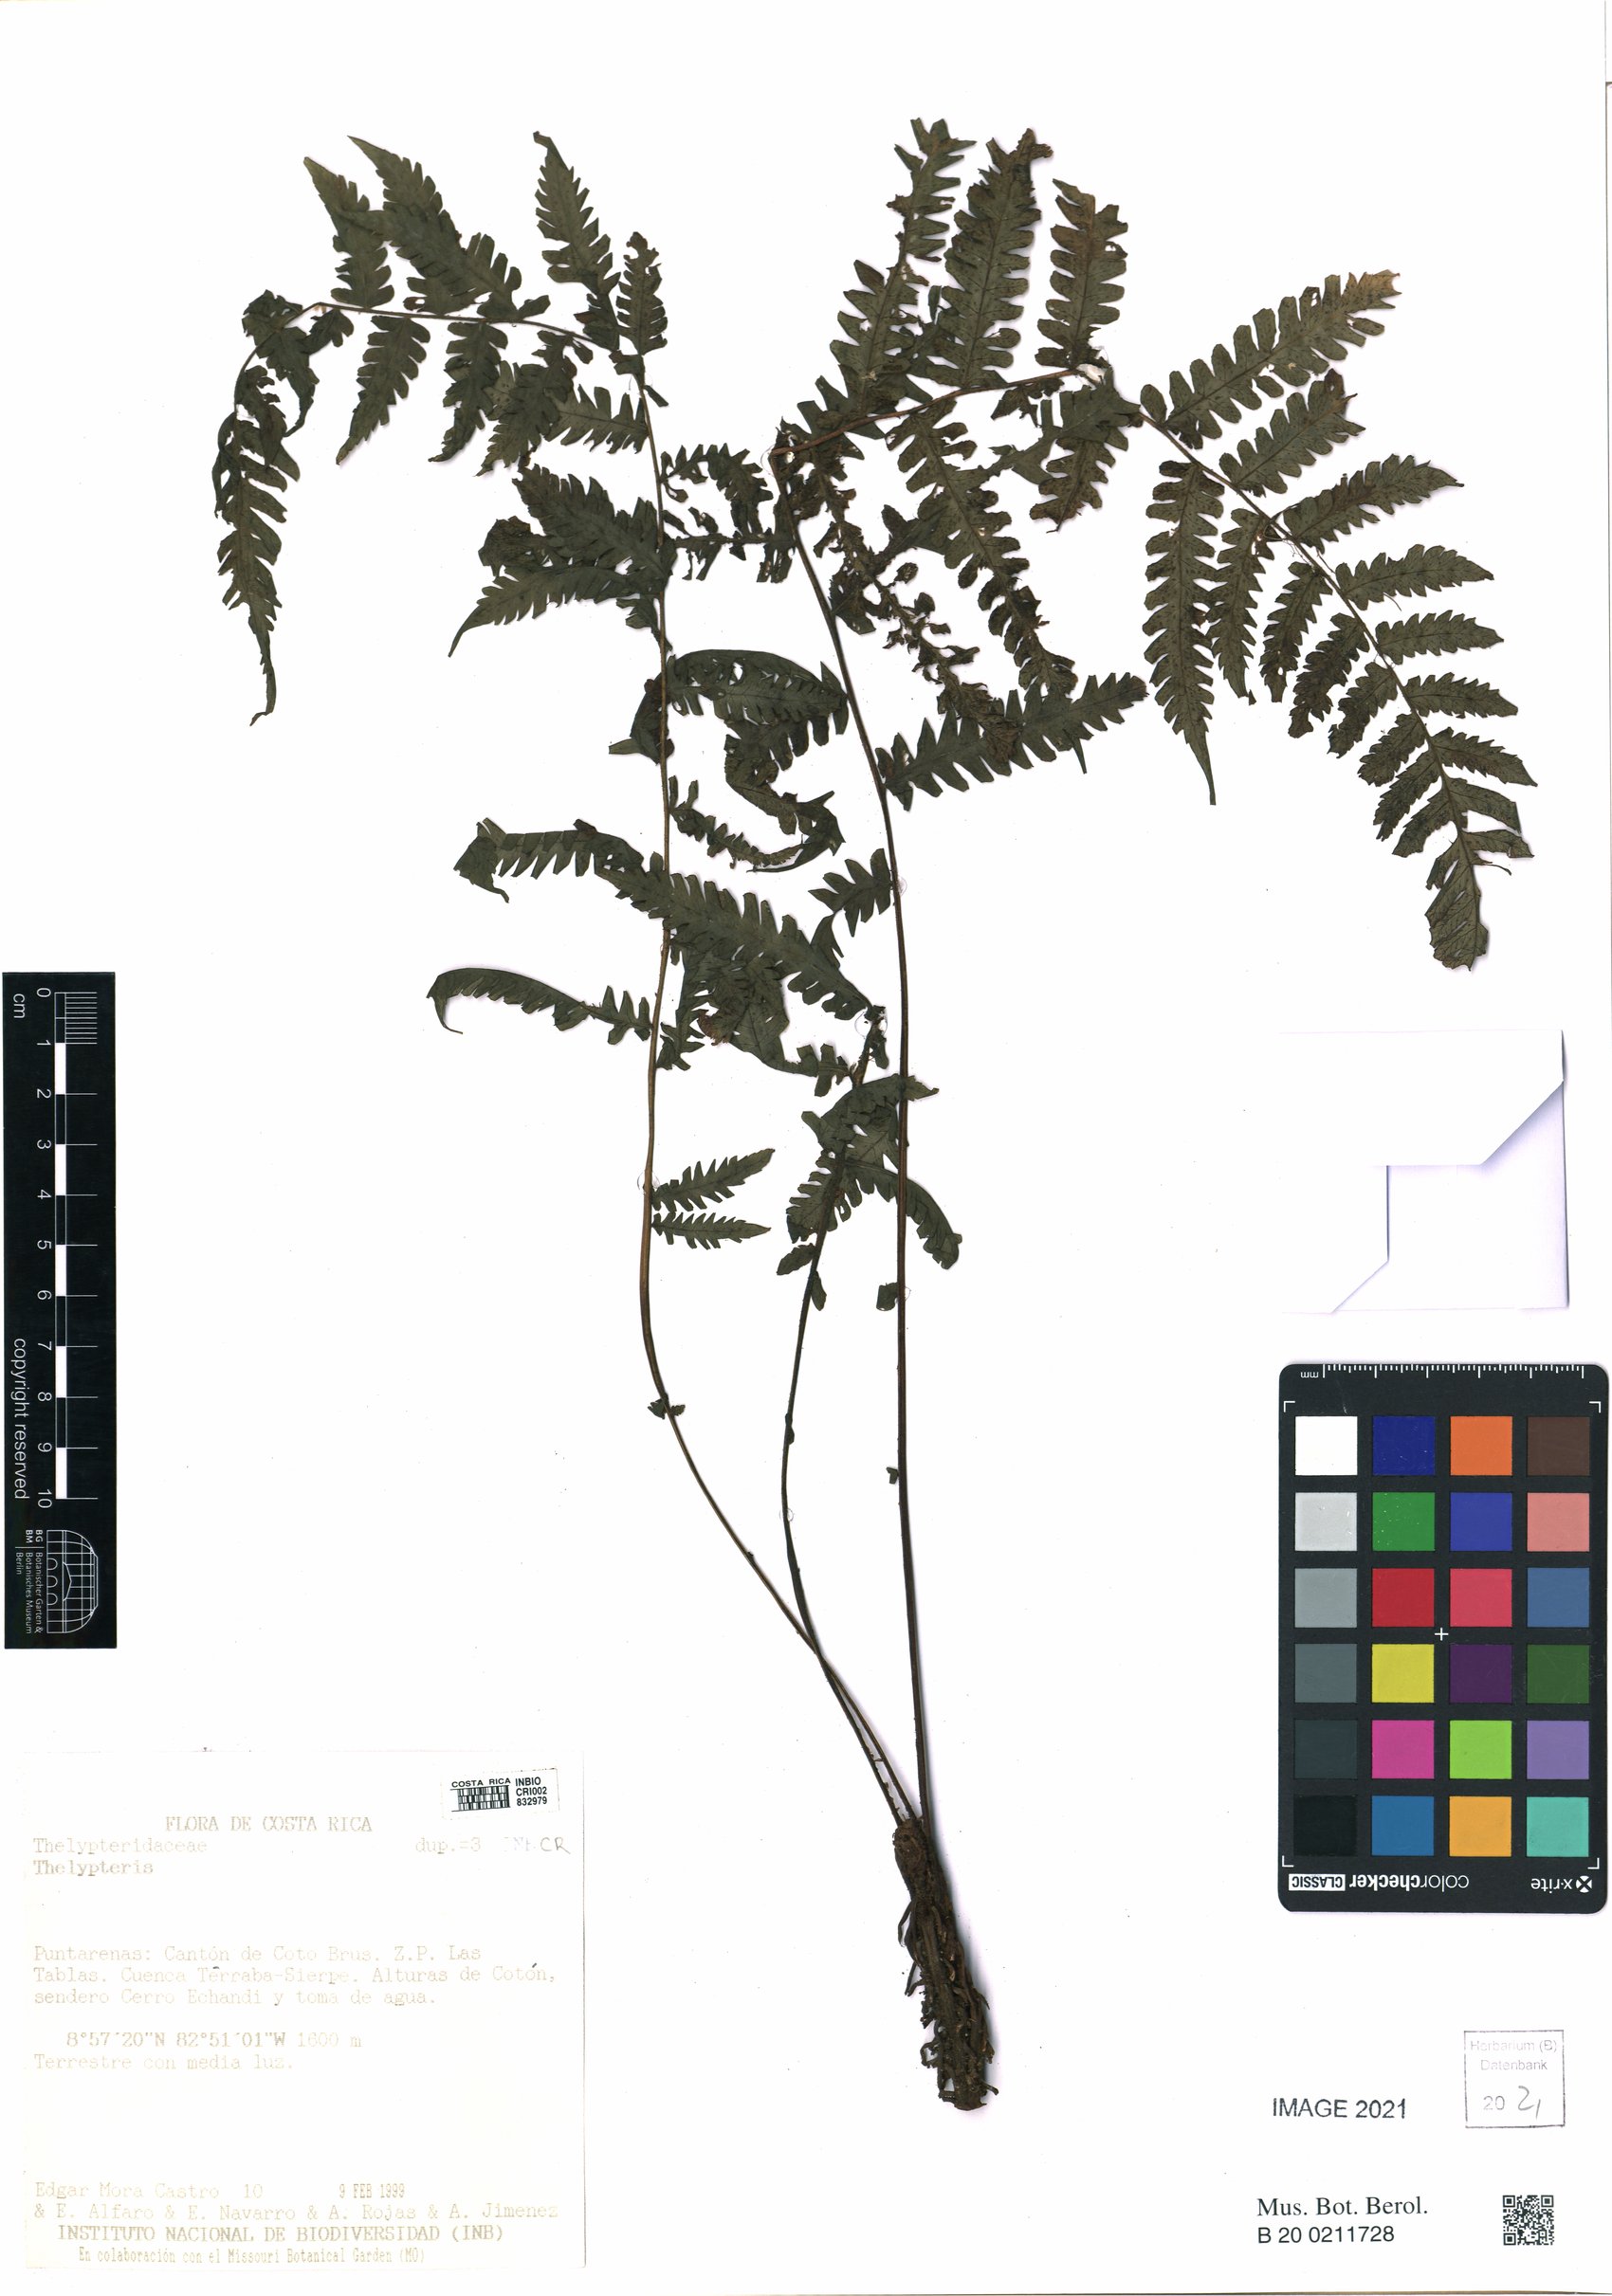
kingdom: Plantae
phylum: Tracheophyta
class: Polypodiopsida
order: Polypodiales
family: Thelypteridaceae
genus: Thelypteris
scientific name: Thelypteris
